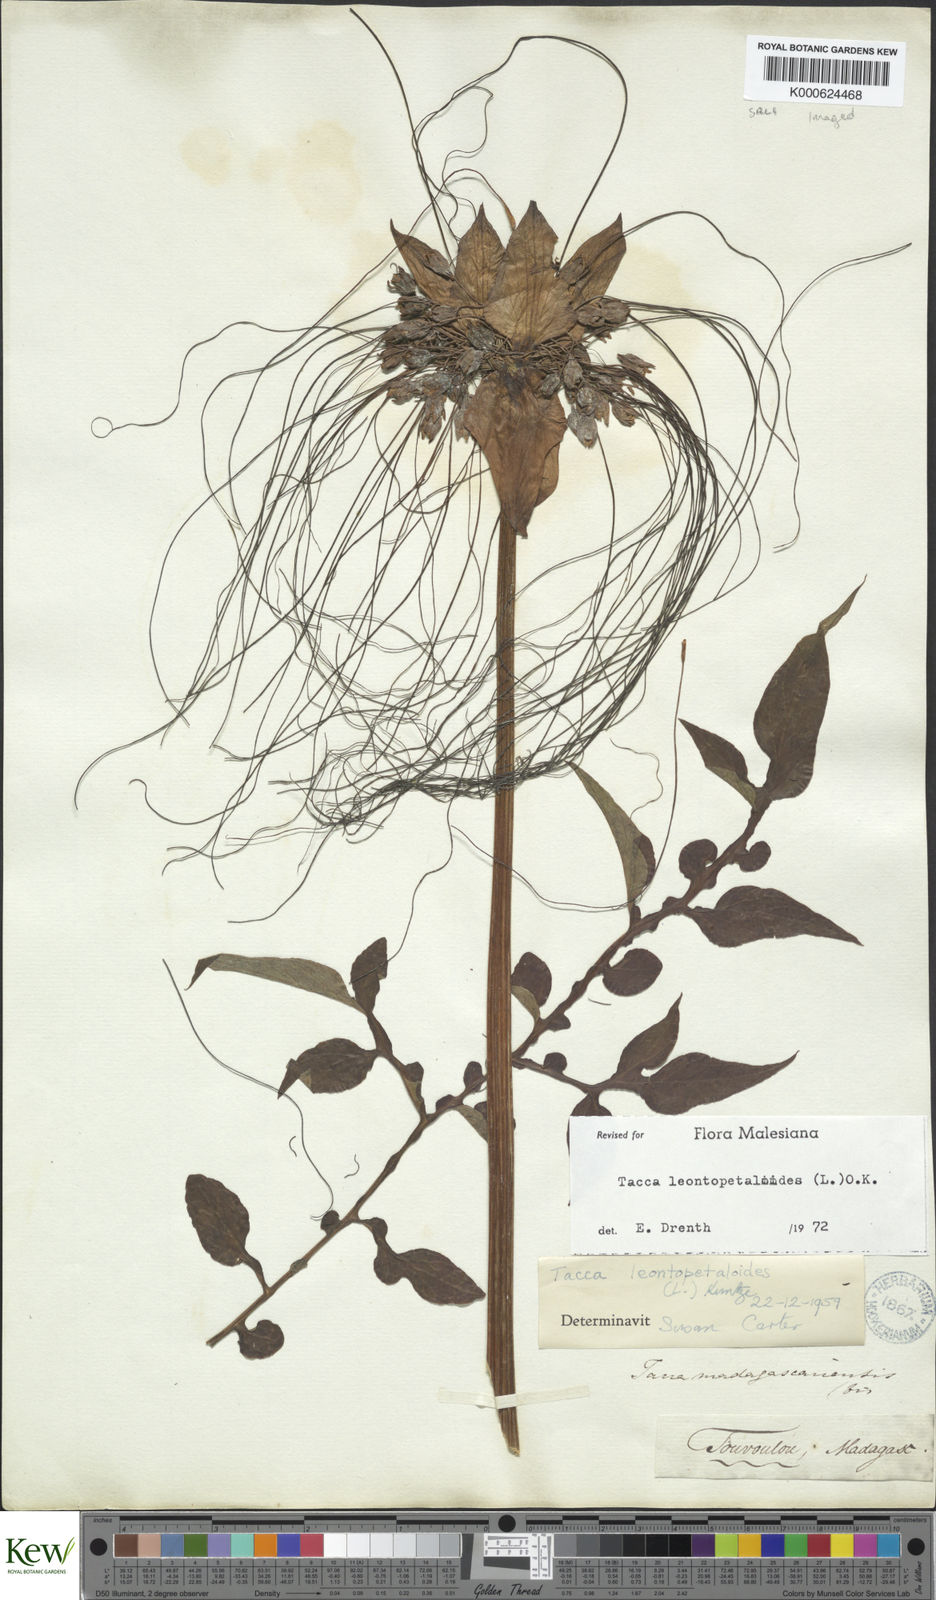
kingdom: Plantae
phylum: Tracheophyta
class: Liliopsida
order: Dioscoreales
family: Dioscoreaceae
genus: Tacca
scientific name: Tacca leontopetaloides
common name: Arrowroot
